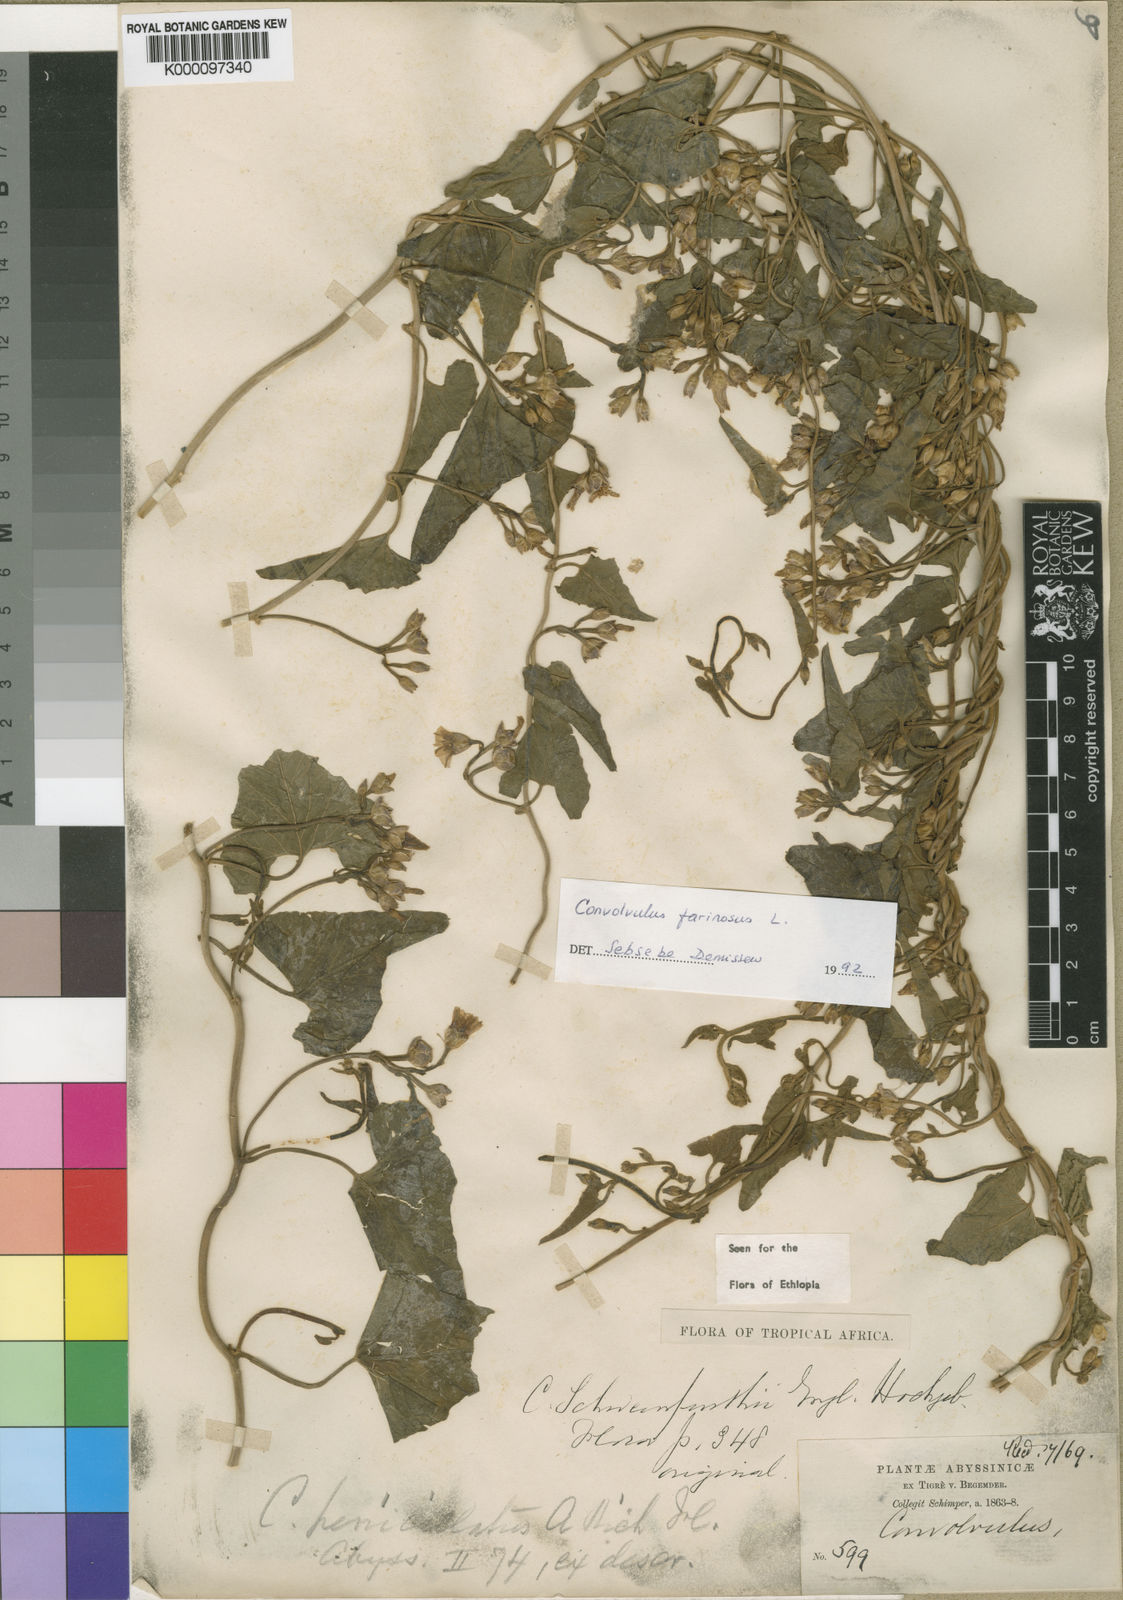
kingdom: Plantae
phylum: Tracheophyta
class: Magnoliopsida
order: Solanales
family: Convolvulaceae
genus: Convolvulus
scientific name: Convolvulus farinosus
